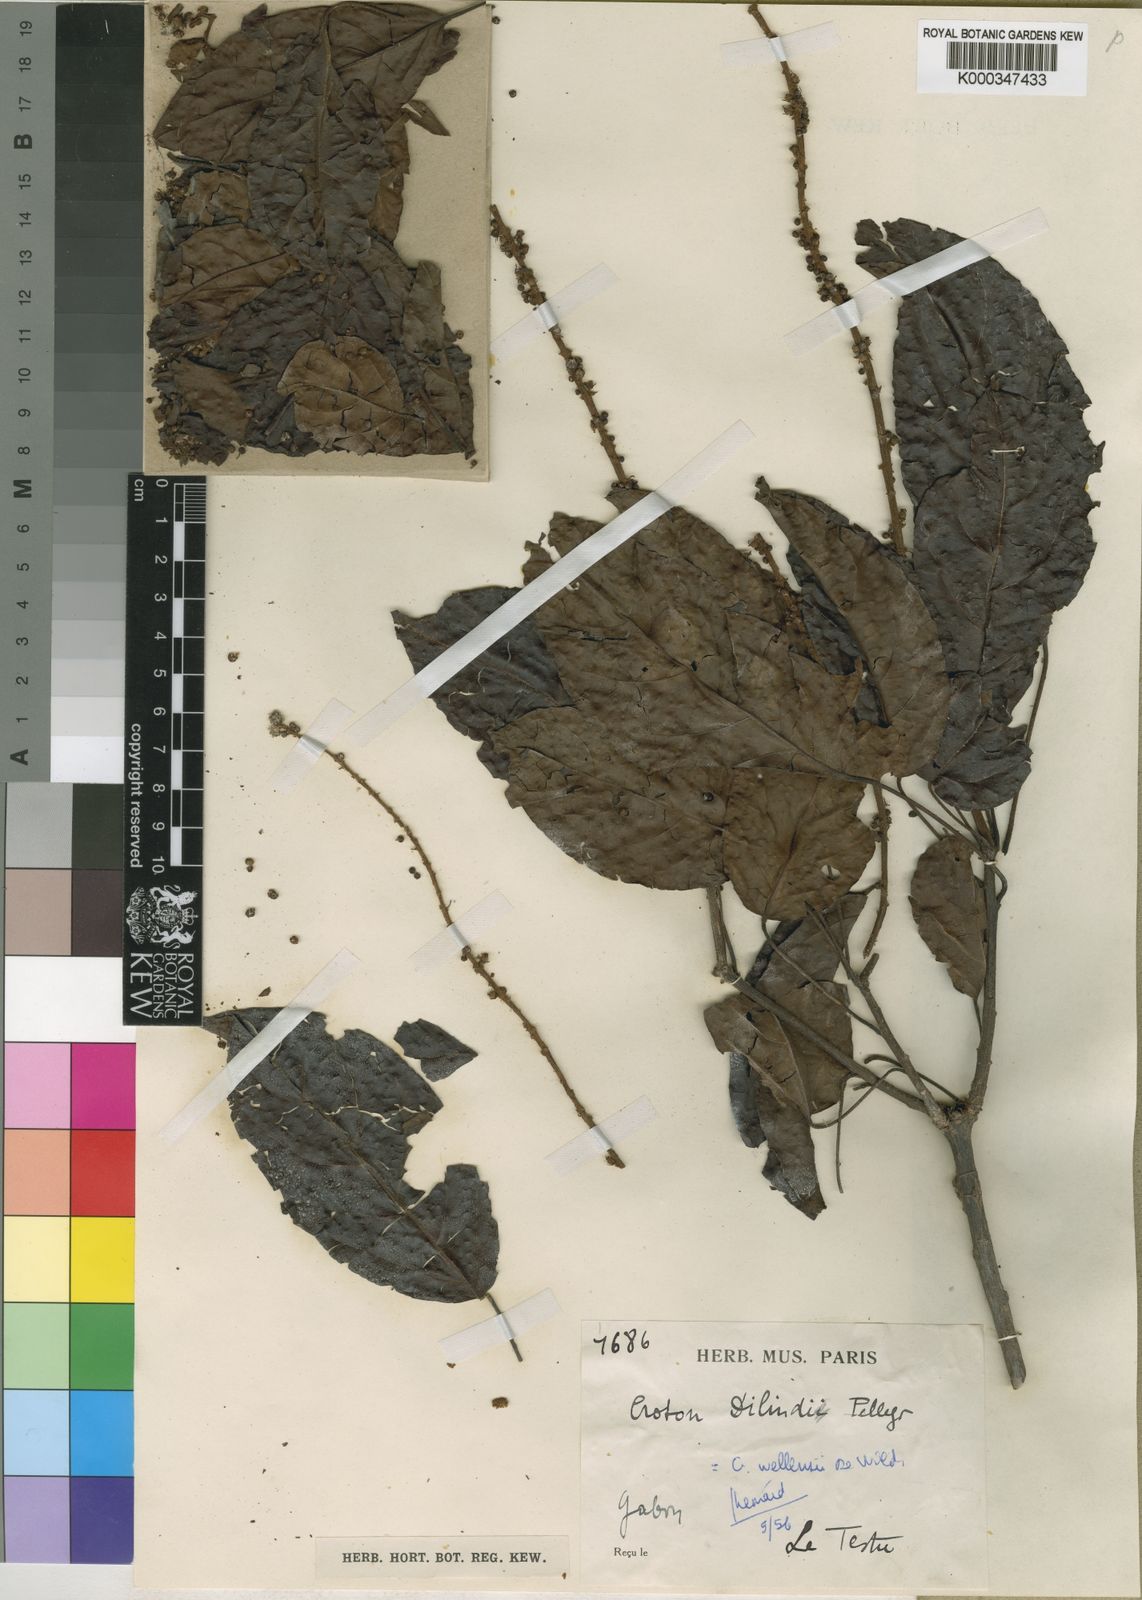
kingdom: Plantae
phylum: Tracheophyta
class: Magnoliopsida
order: Malpighiales
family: Euphorbiaceae
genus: Croton
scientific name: Croton wellensii
